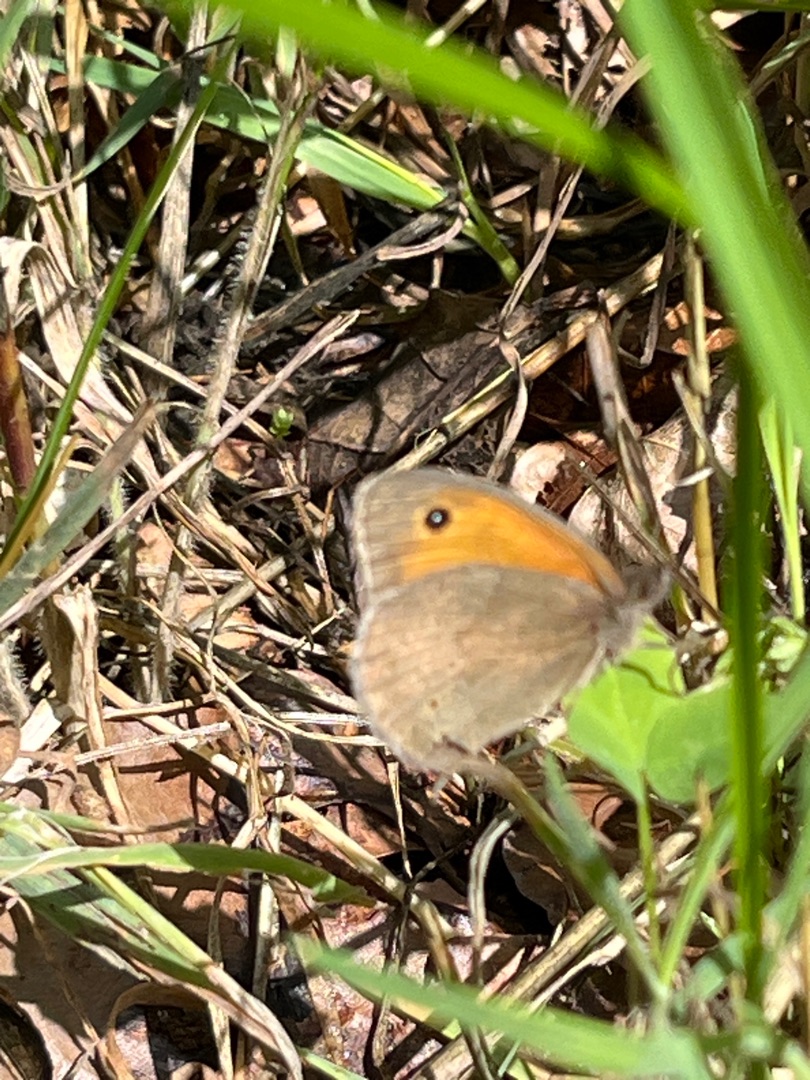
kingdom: Animalia
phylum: Arthropoda
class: Insecta
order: Lepidoptera
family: Nymphalidae
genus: Maniola
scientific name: Maniola jurtina
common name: Græsrandøje
